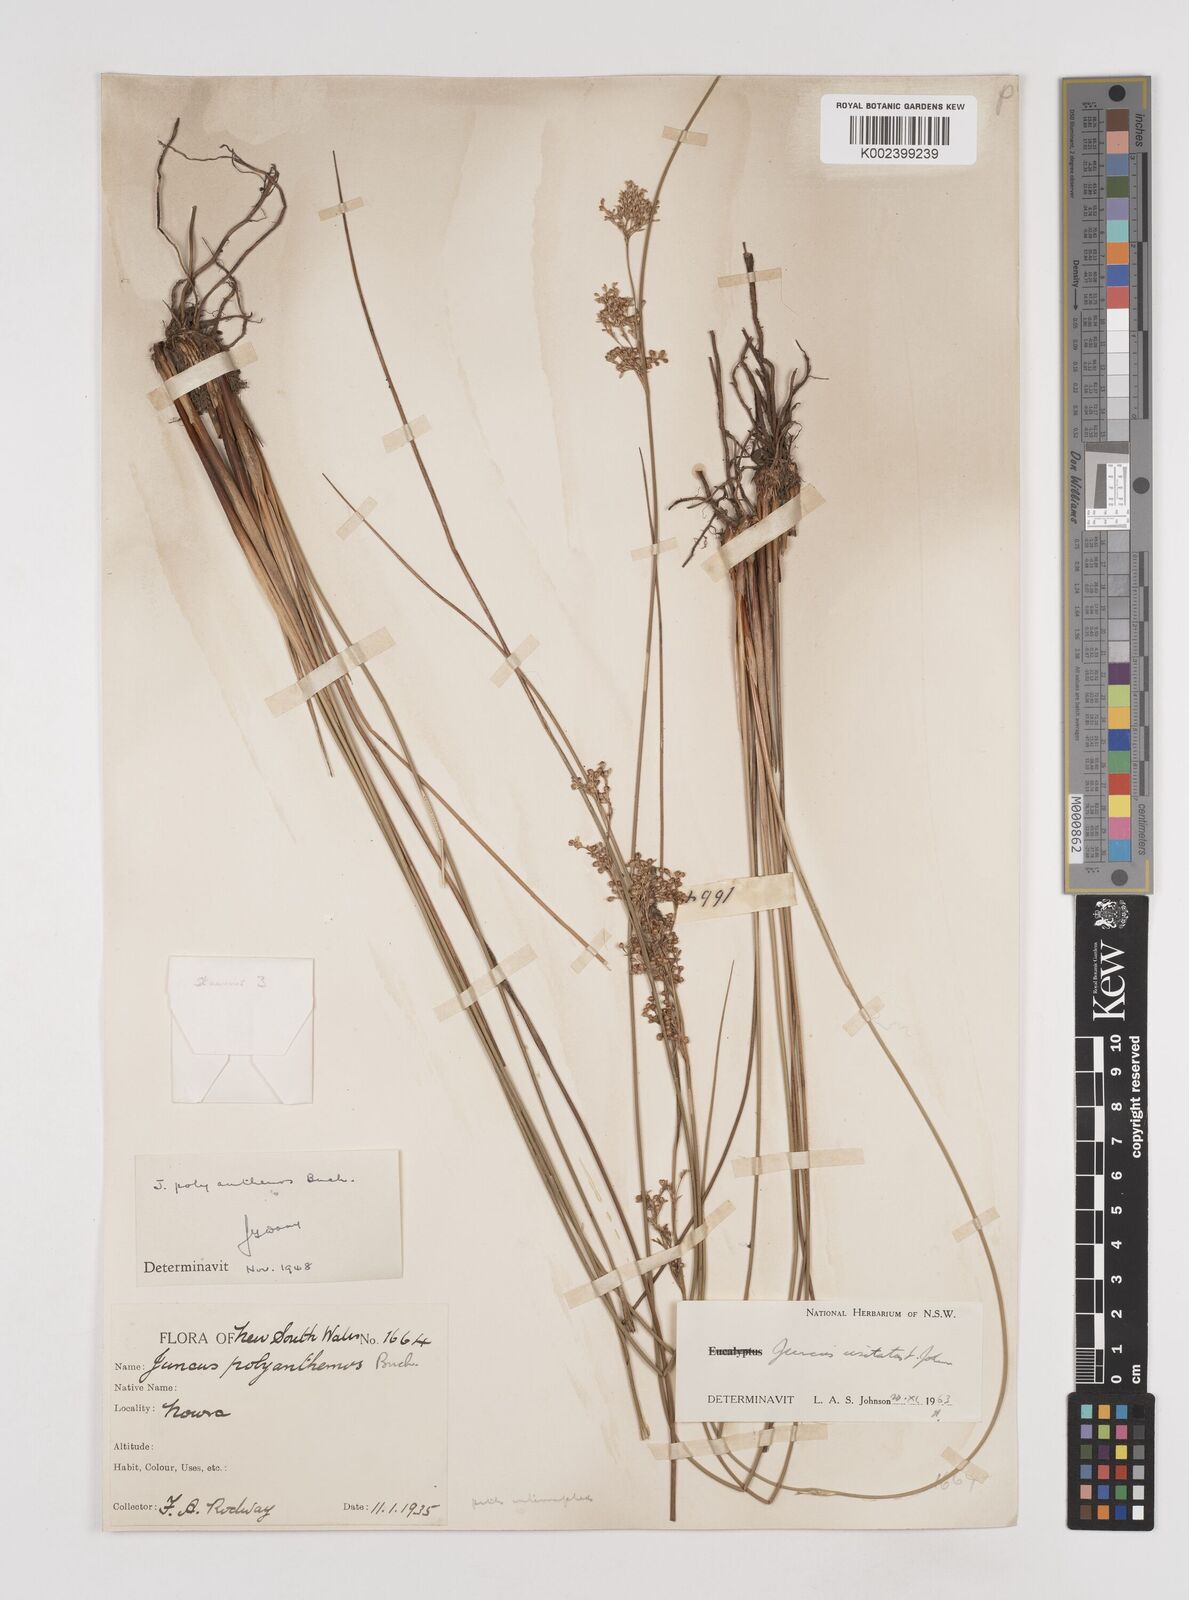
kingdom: Plantae
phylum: Tracheophyta
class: Liliopsida
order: Poales
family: Juncaceae
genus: Juncus
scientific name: Juncus usitatus
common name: Rush
